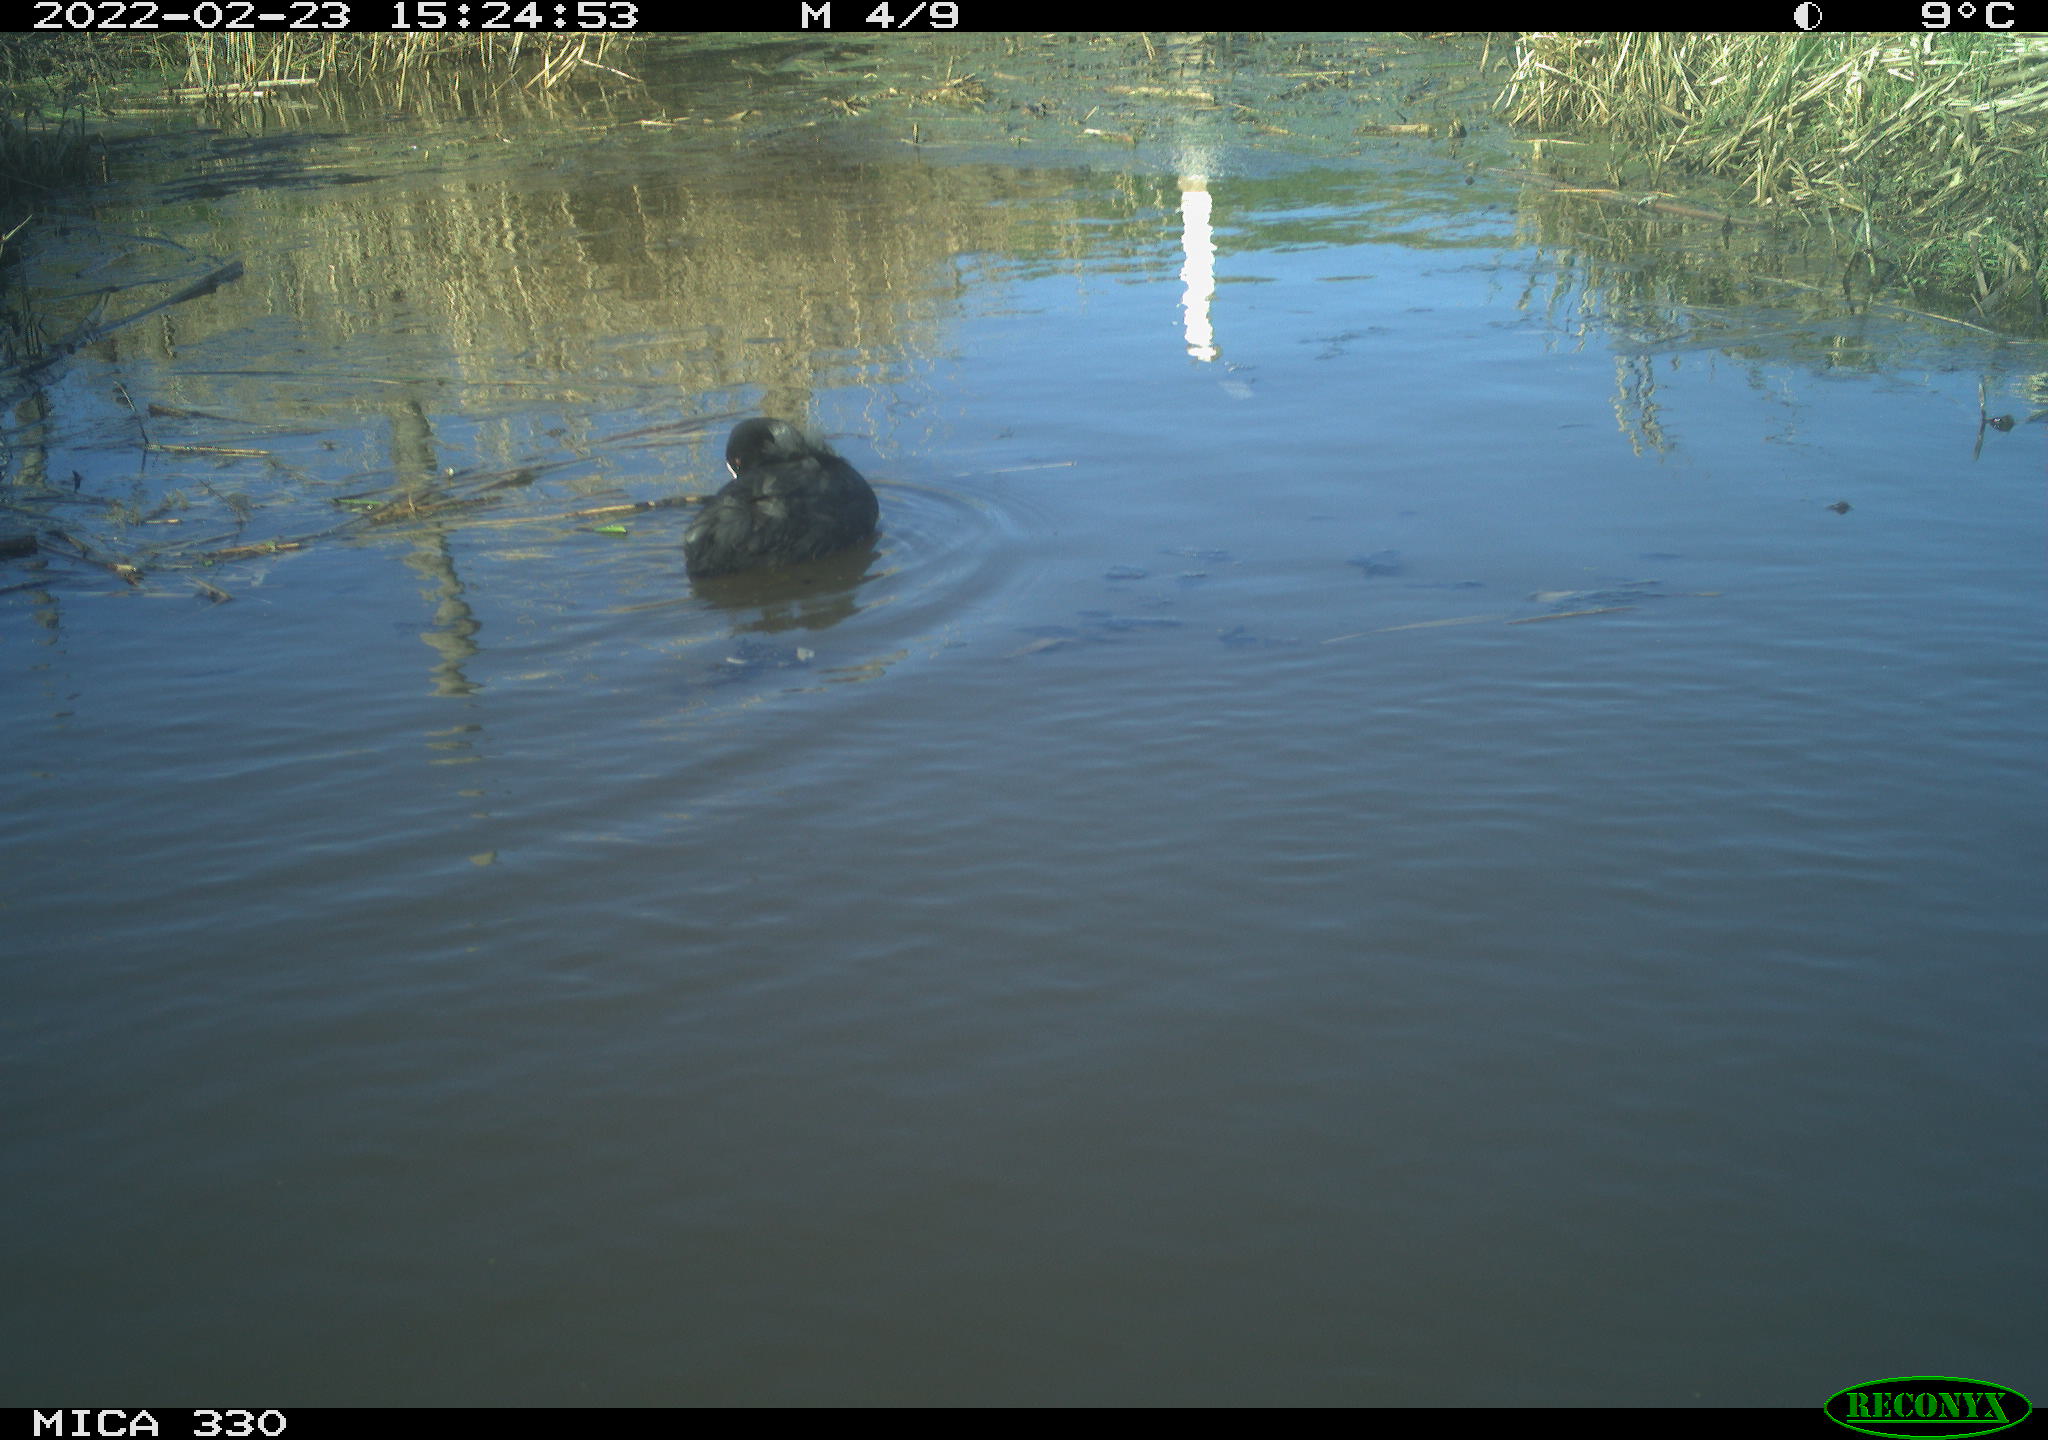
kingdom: Animalia
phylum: Chordata
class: Aves
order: Gruiformes
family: Rallidae
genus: Fulica
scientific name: Fulica atra
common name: Eurasian coot
